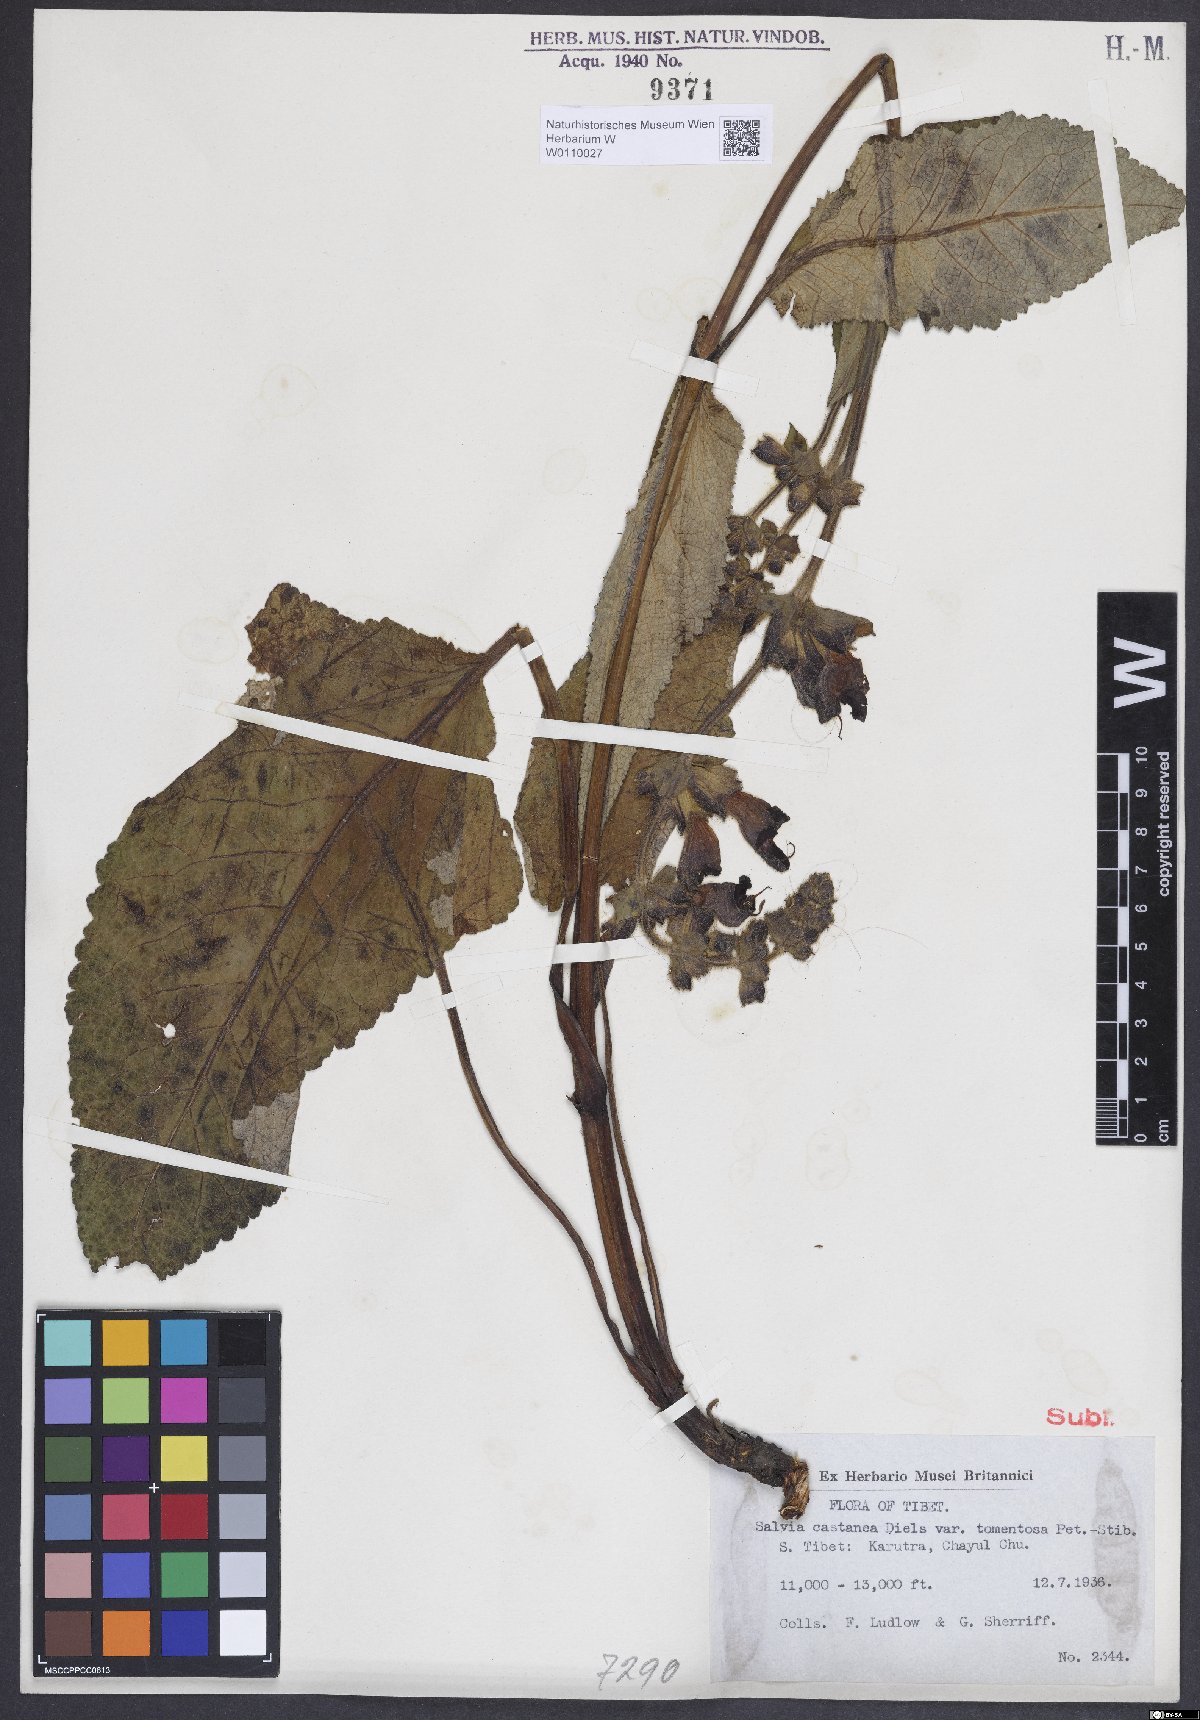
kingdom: Plantae
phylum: Tracheophyta
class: Magnoliopsida
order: Lamiales
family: Lamiaceae
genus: Salvia
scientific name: Salvia castanea
